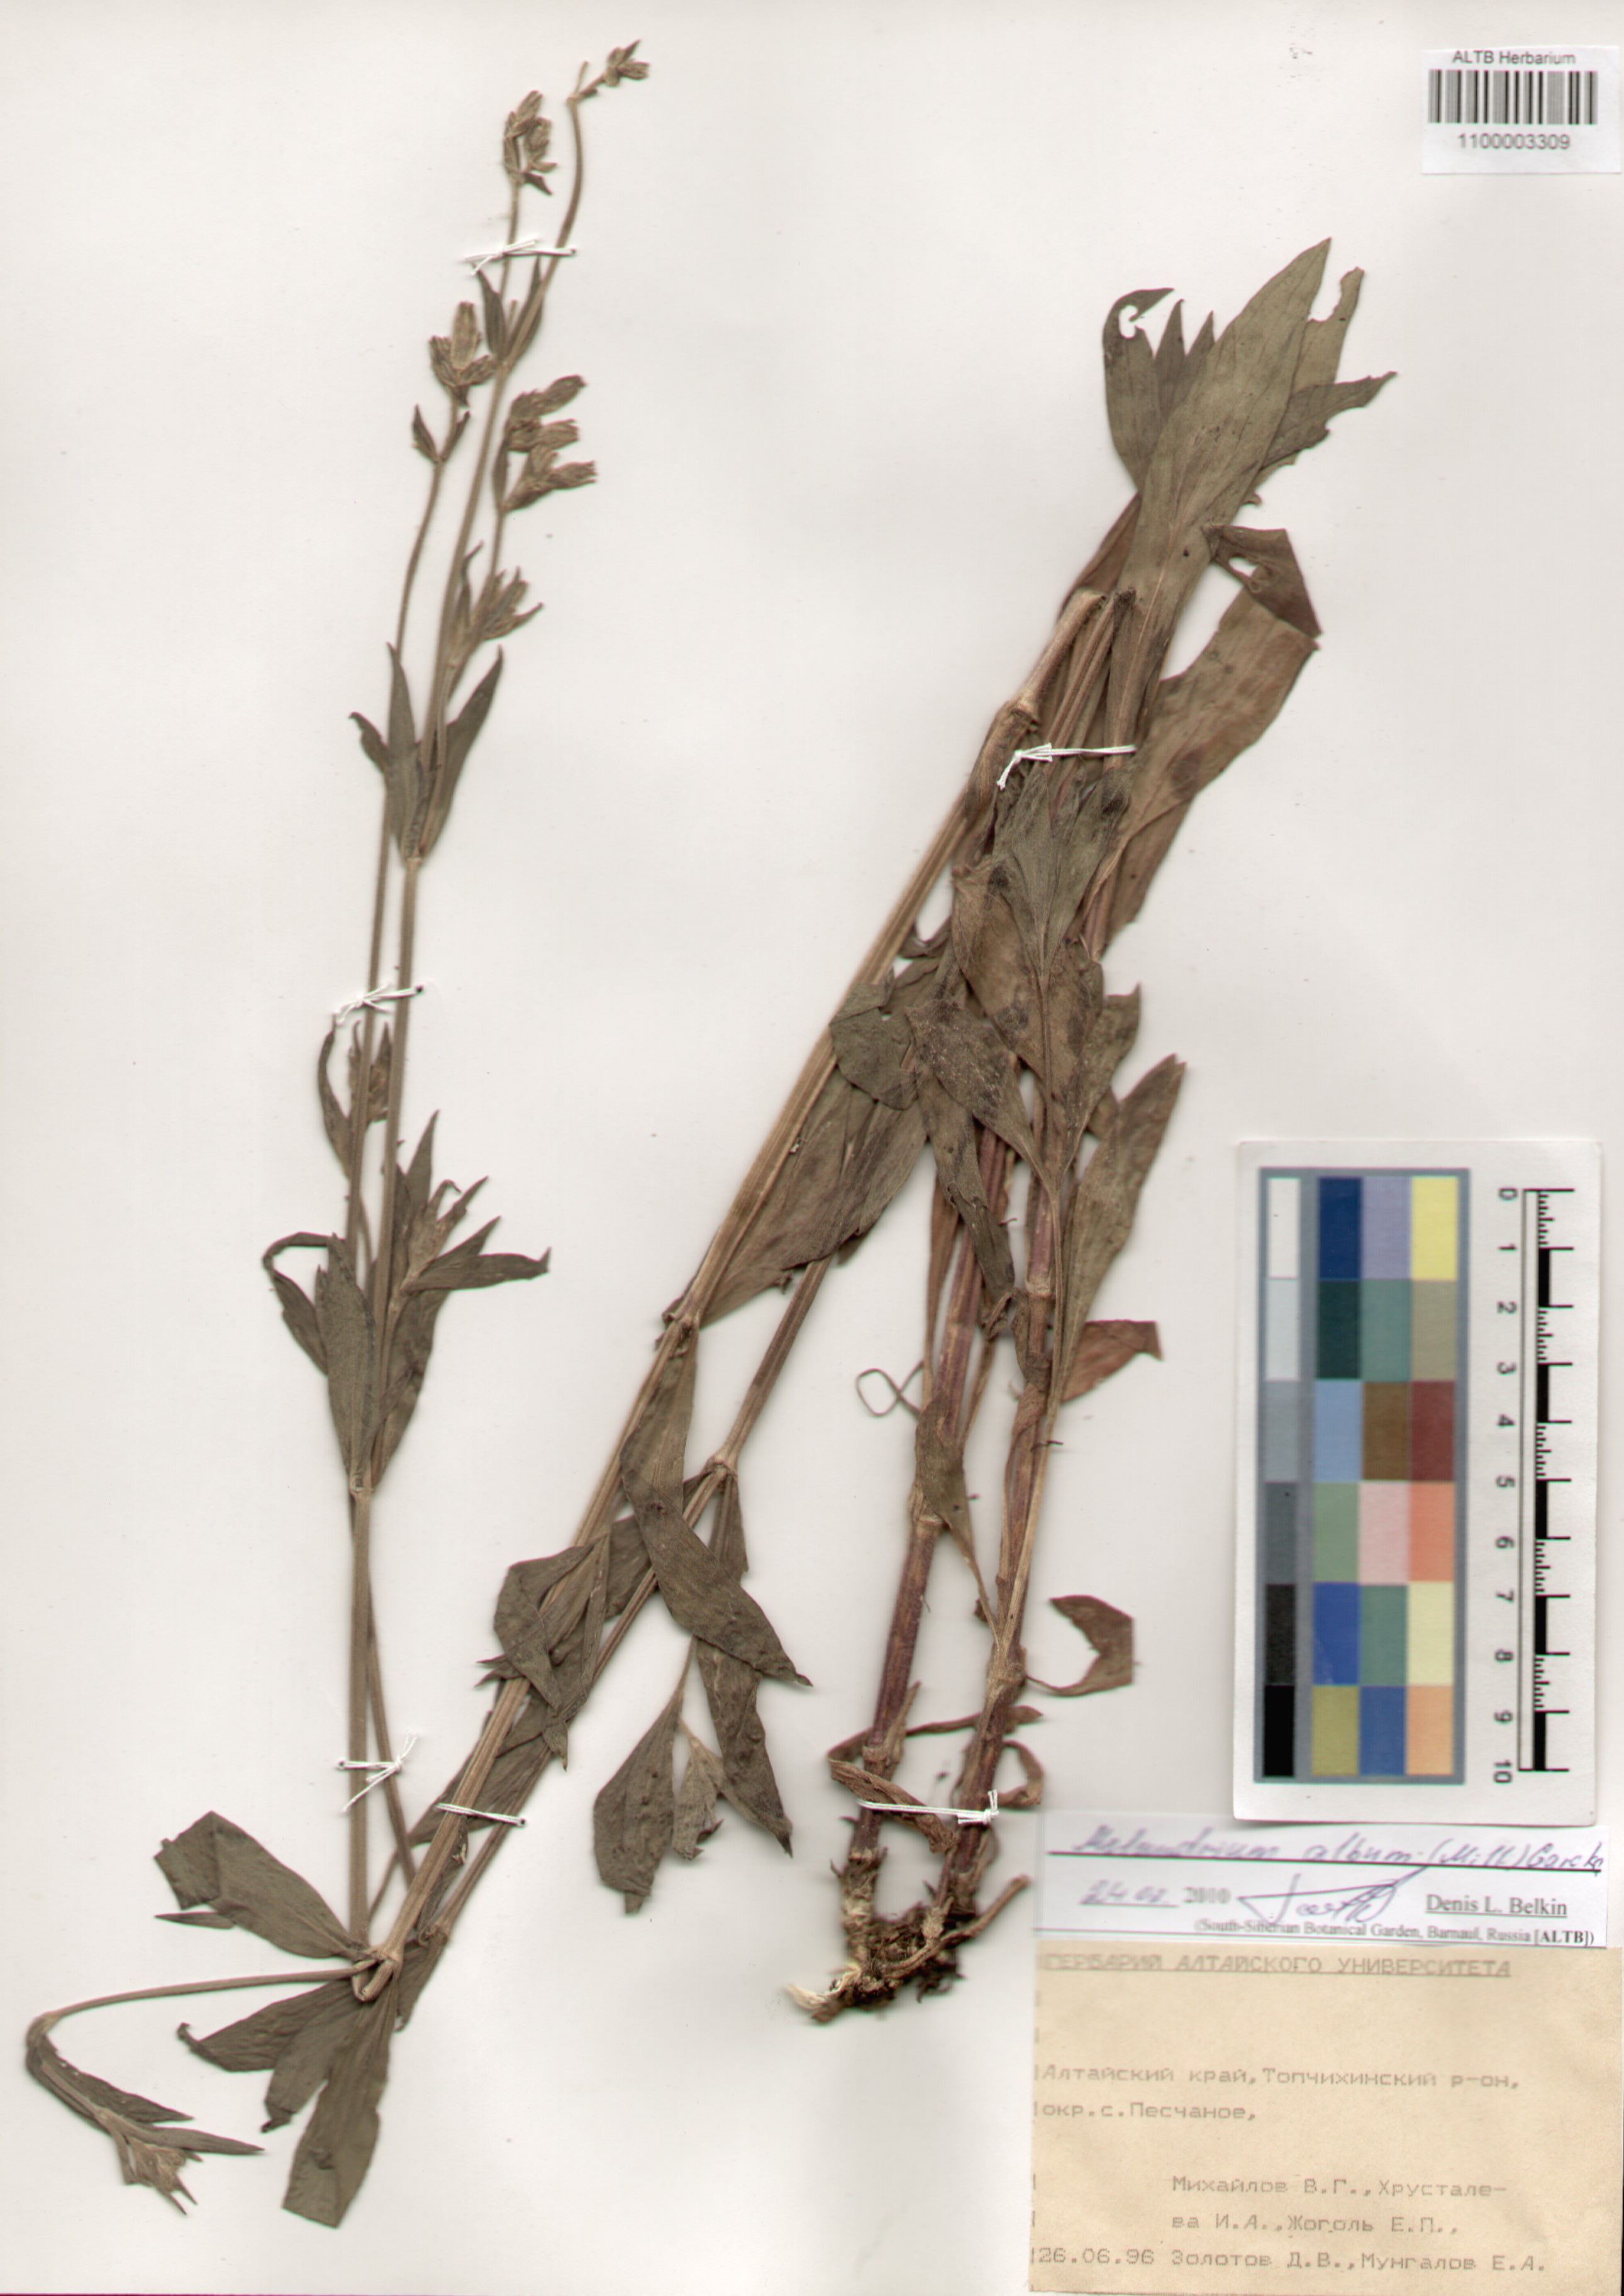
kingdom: Plantae
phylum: Tracheophyta
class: Magnoliopsida
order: Caryophyllales
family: Caryophyllaceae
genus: Silene
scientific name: Silene latifolia
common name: White campion
